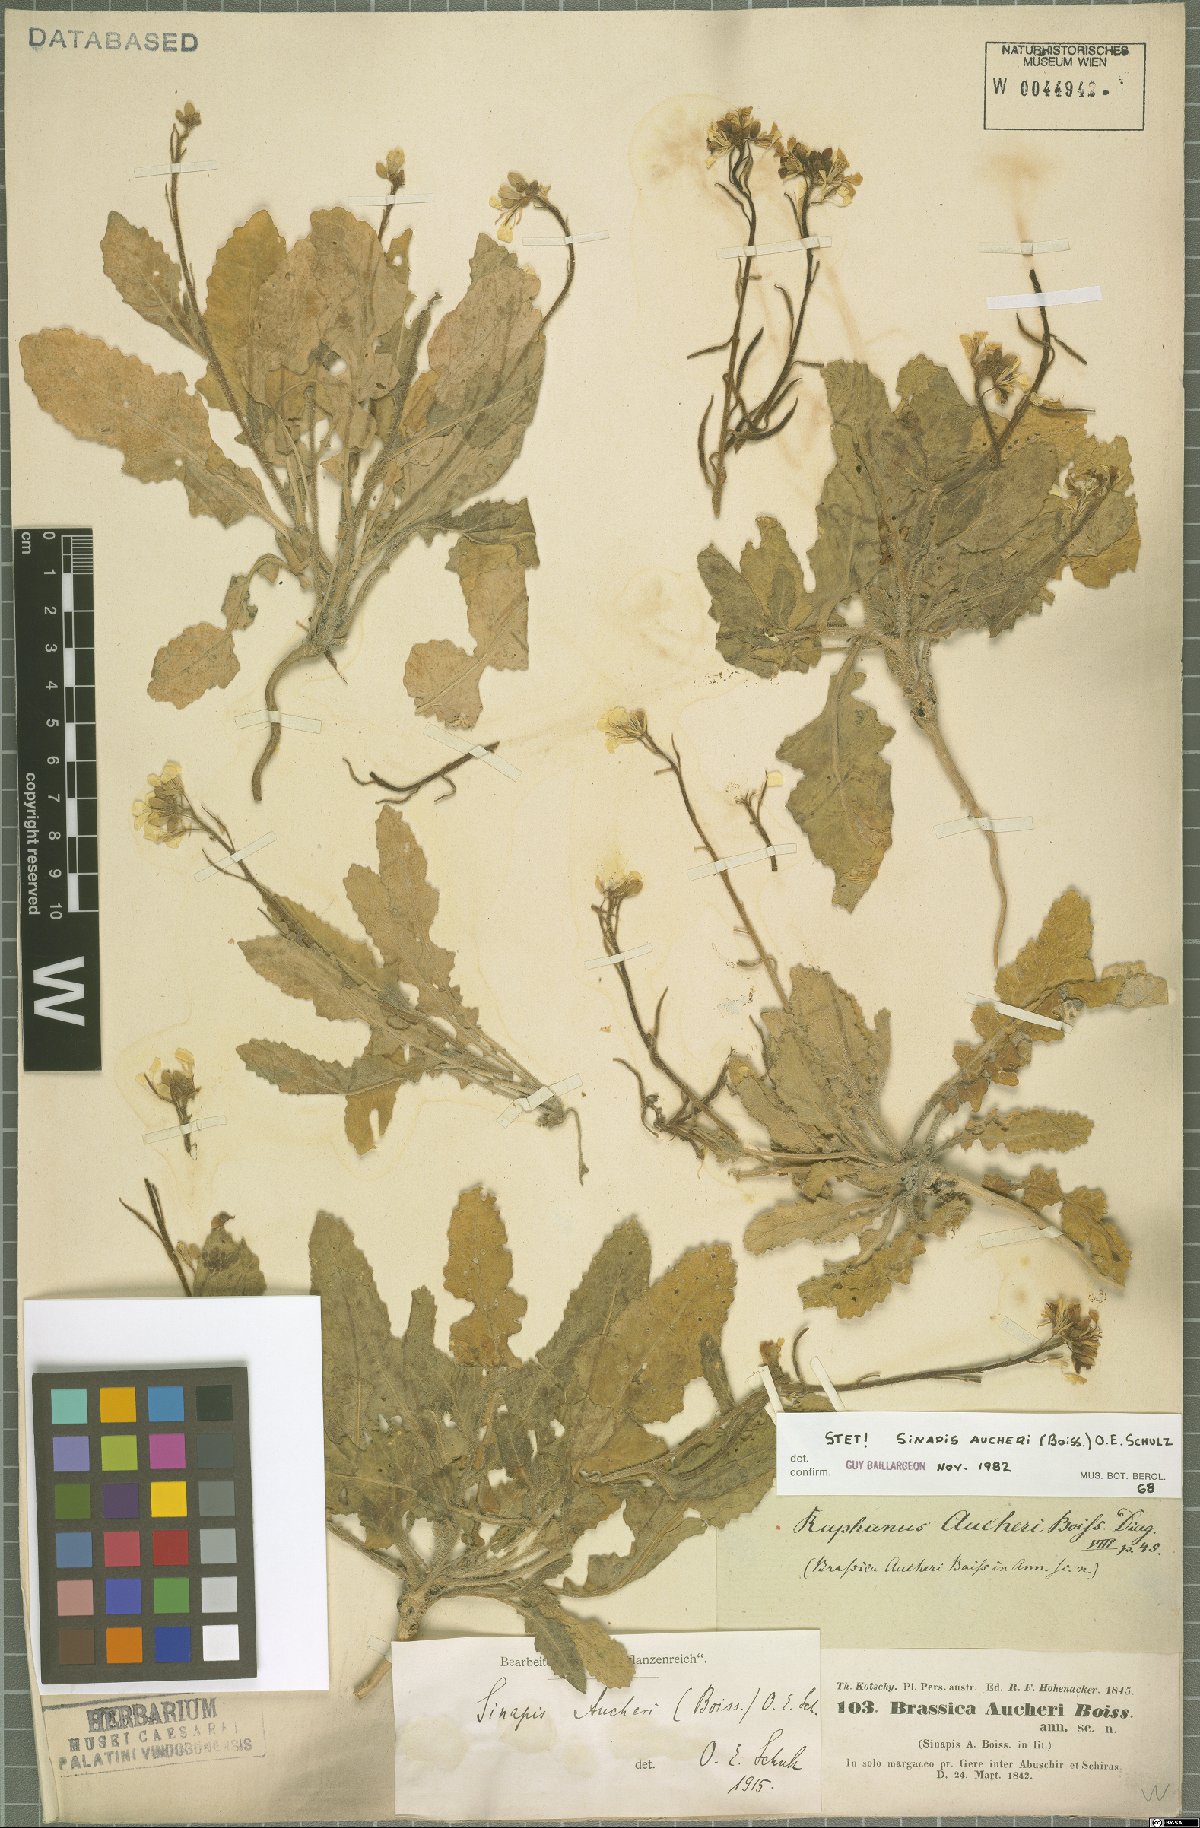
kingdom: Plantae
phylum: Tracheophyta
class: Magnoliopsida
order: Brassicales
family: Brassicaceae
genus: Brassica
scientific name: Brassica aucheri
